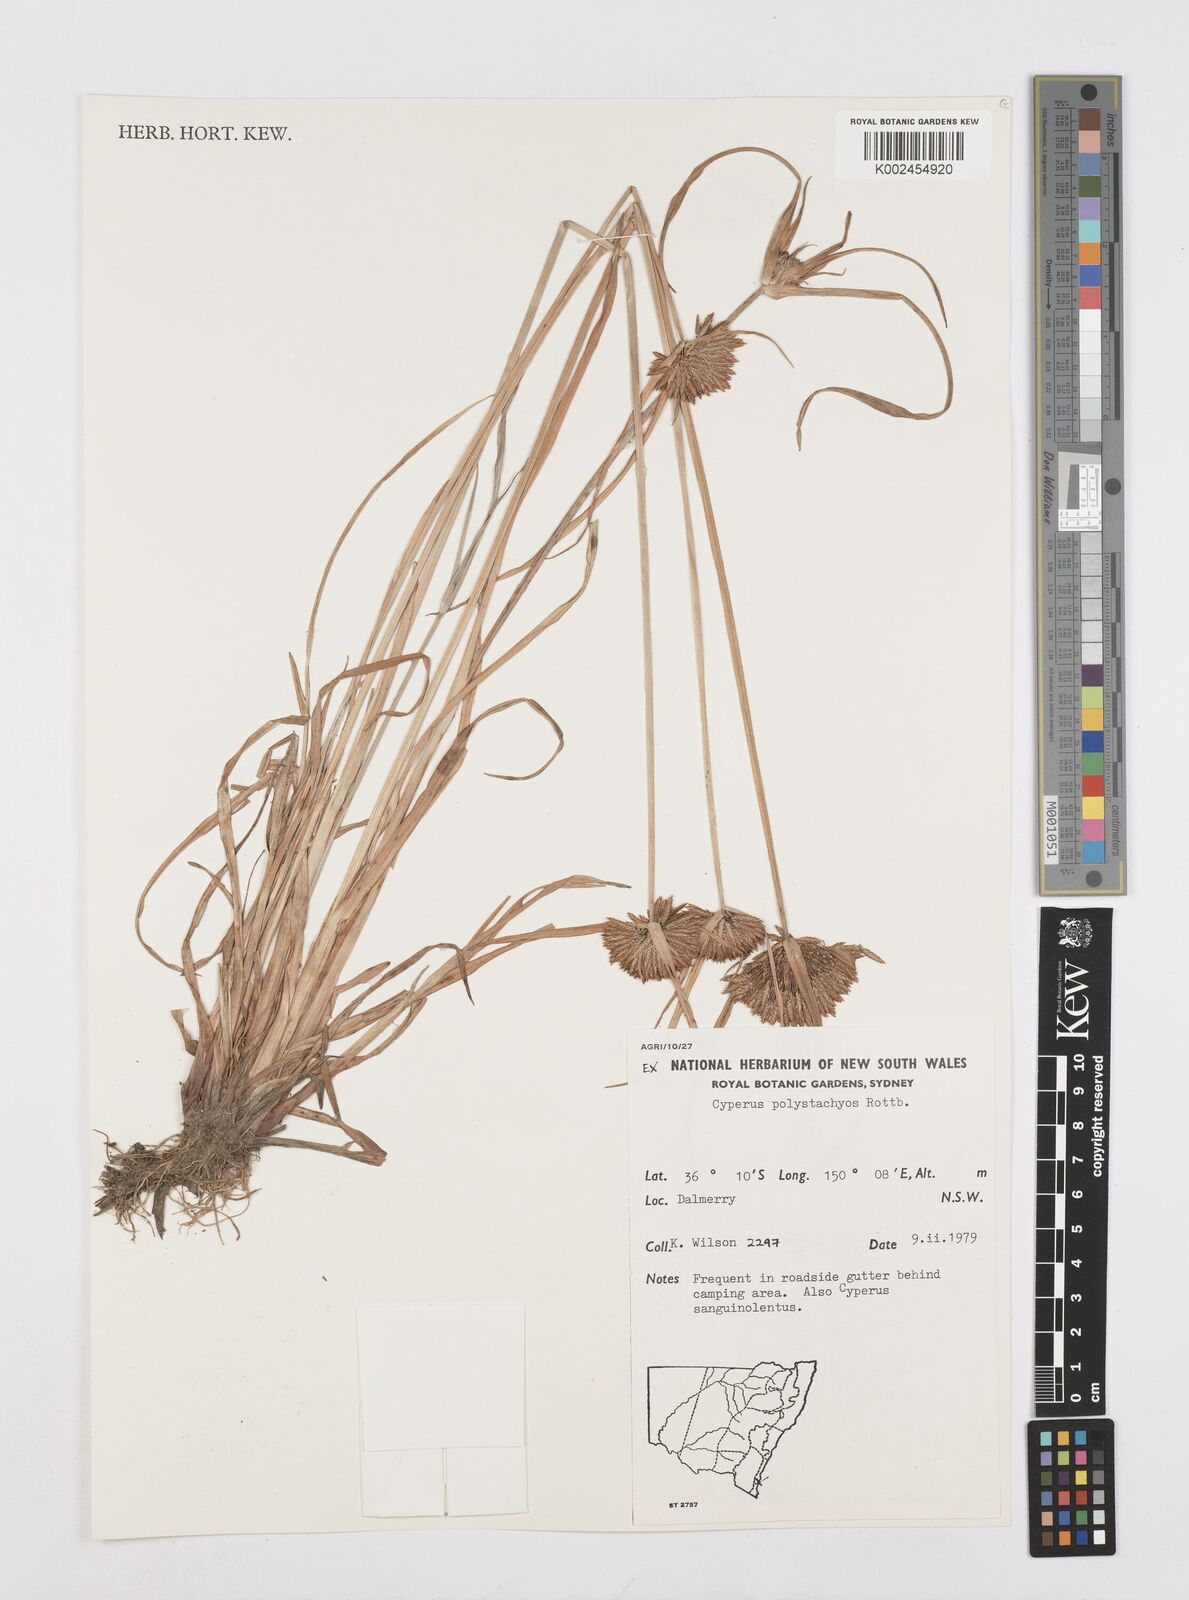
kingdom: Plantae
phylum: Tracheophyta
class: Liliopsida
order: Poales
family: Cyperaceae
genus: Cyperus
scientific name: Cyperus polystachyos
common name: Bunchy flat sedge
